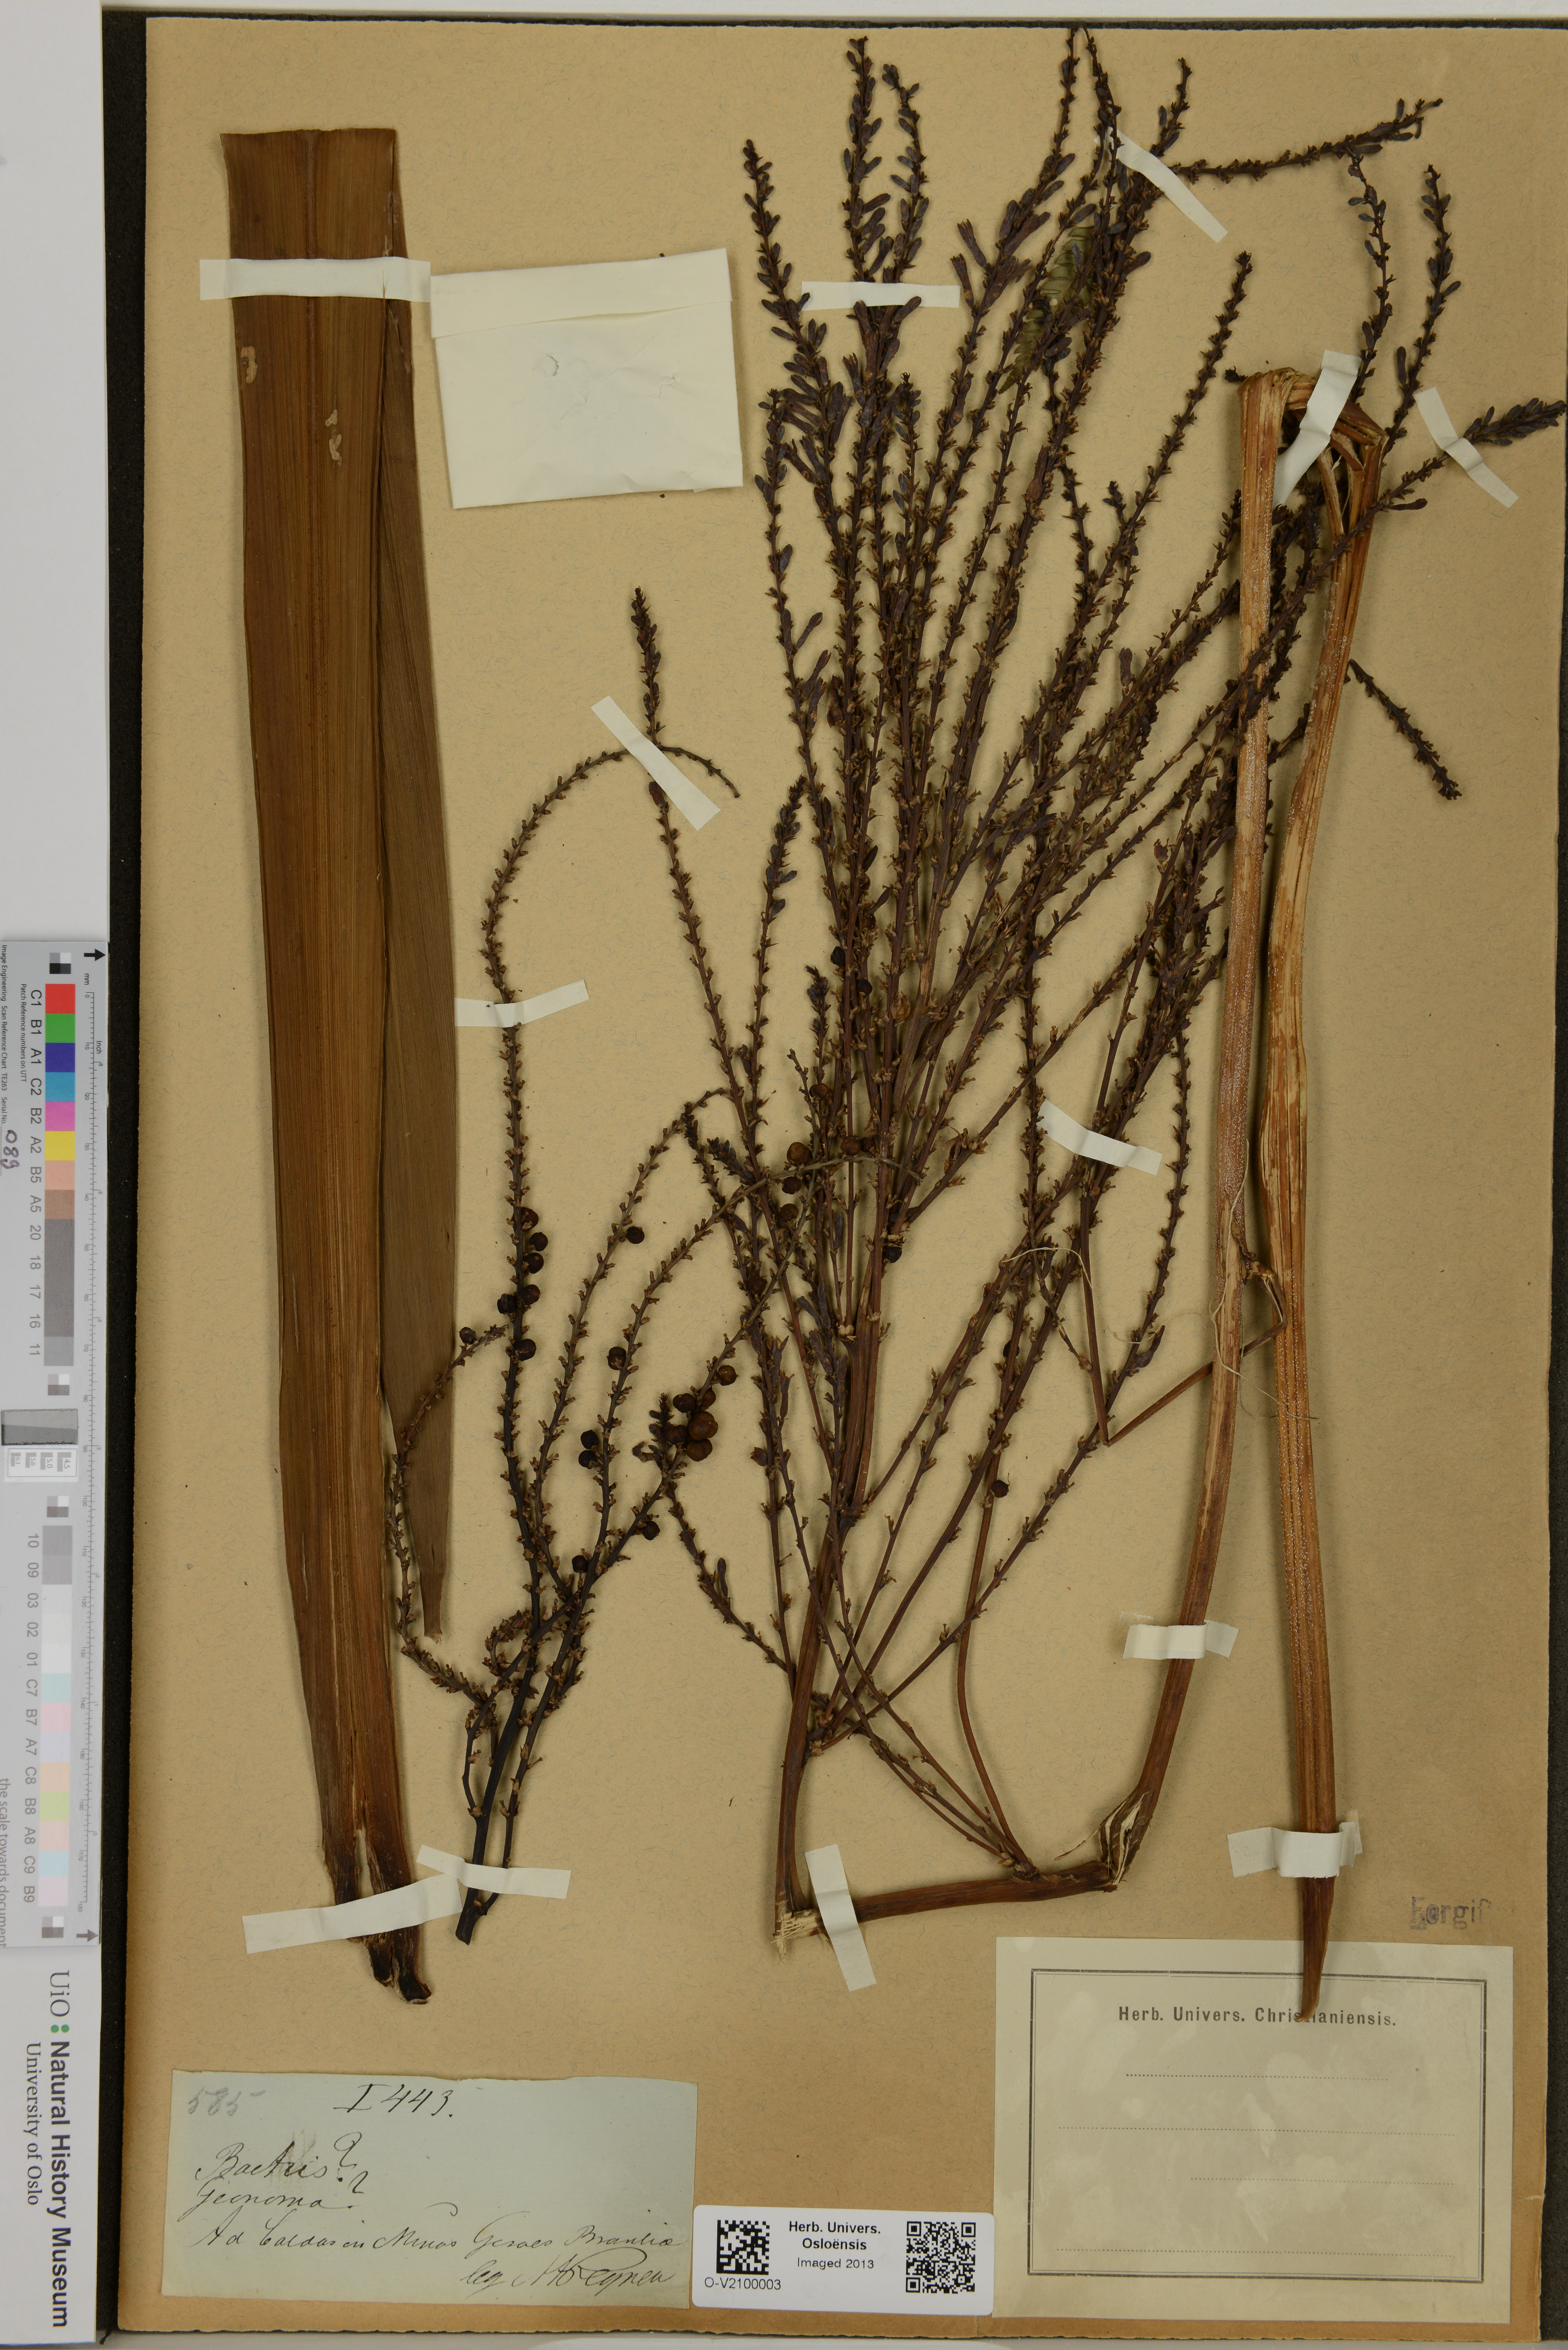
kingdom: Plantae
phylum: Tracheophyta
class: Liliopsida
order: Arecales
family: Arecaceae
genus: Geonoma
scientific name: Geonoma
